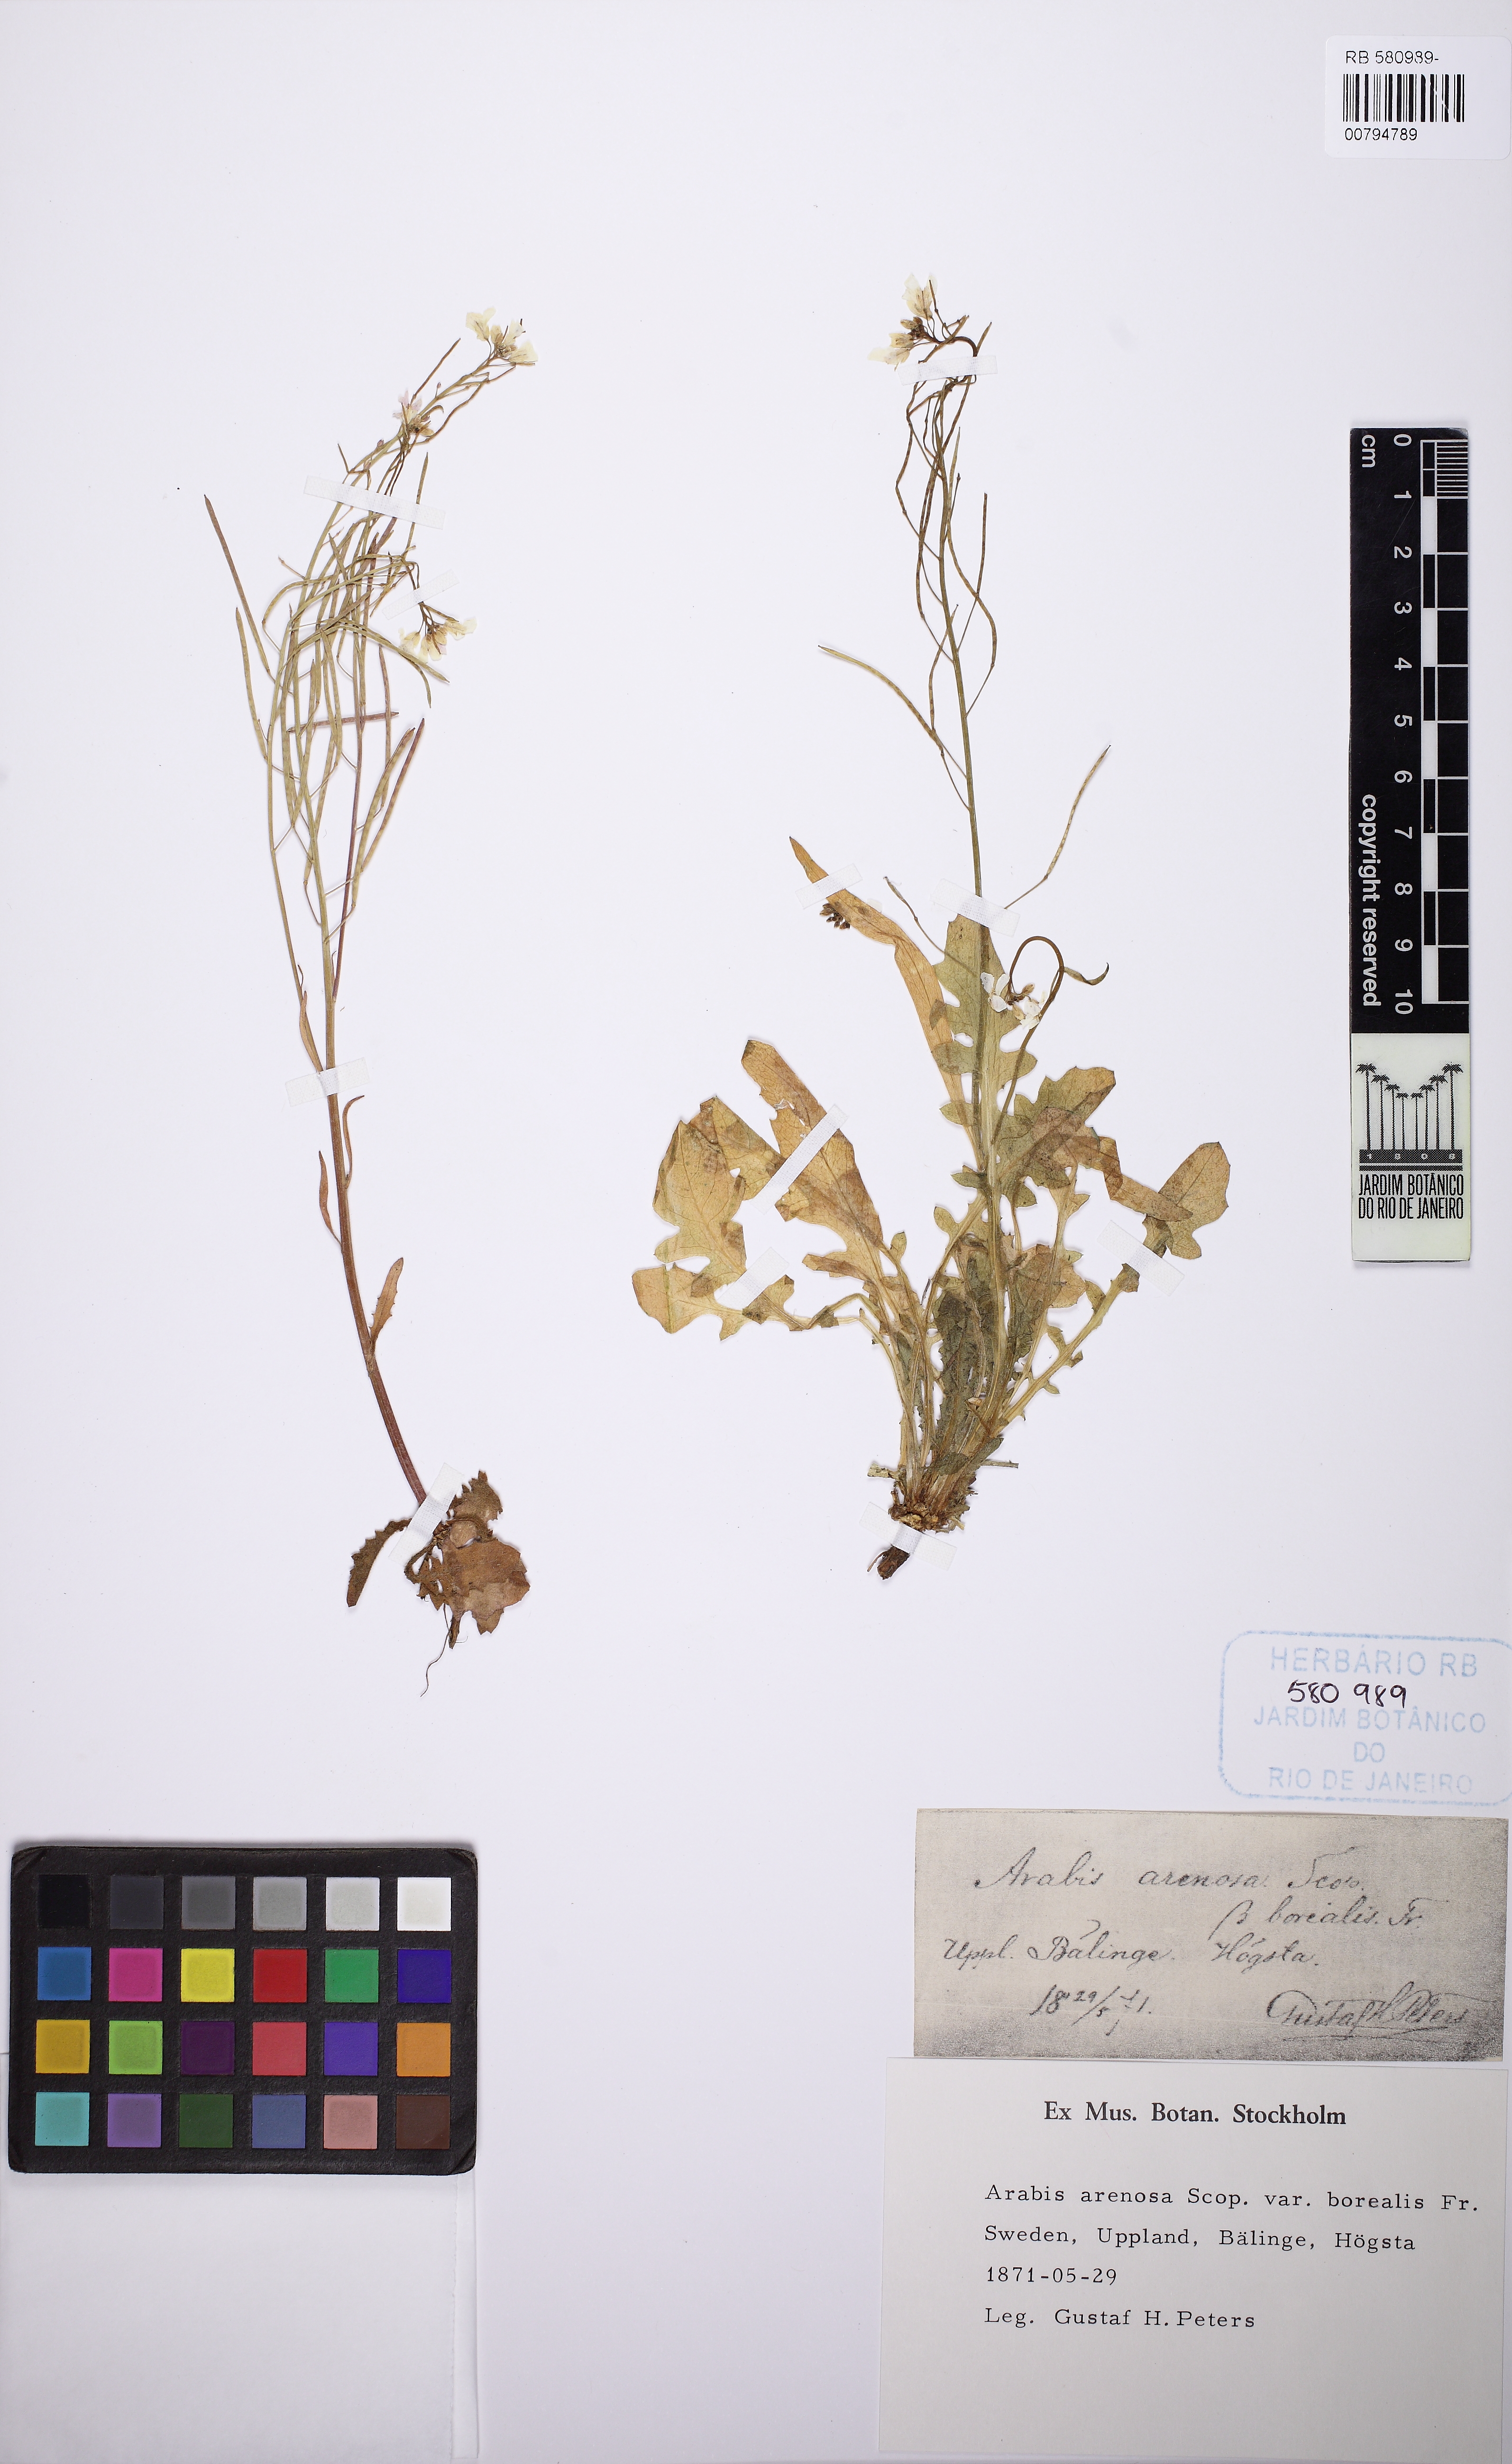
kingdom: Plantae
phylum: Tracheophyta
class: Magnoliopsida
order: Brassicales
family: Brassicaceae
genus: Arabidopsis
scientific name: Arabidopsis lyrata
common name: Lyrate rockcress
